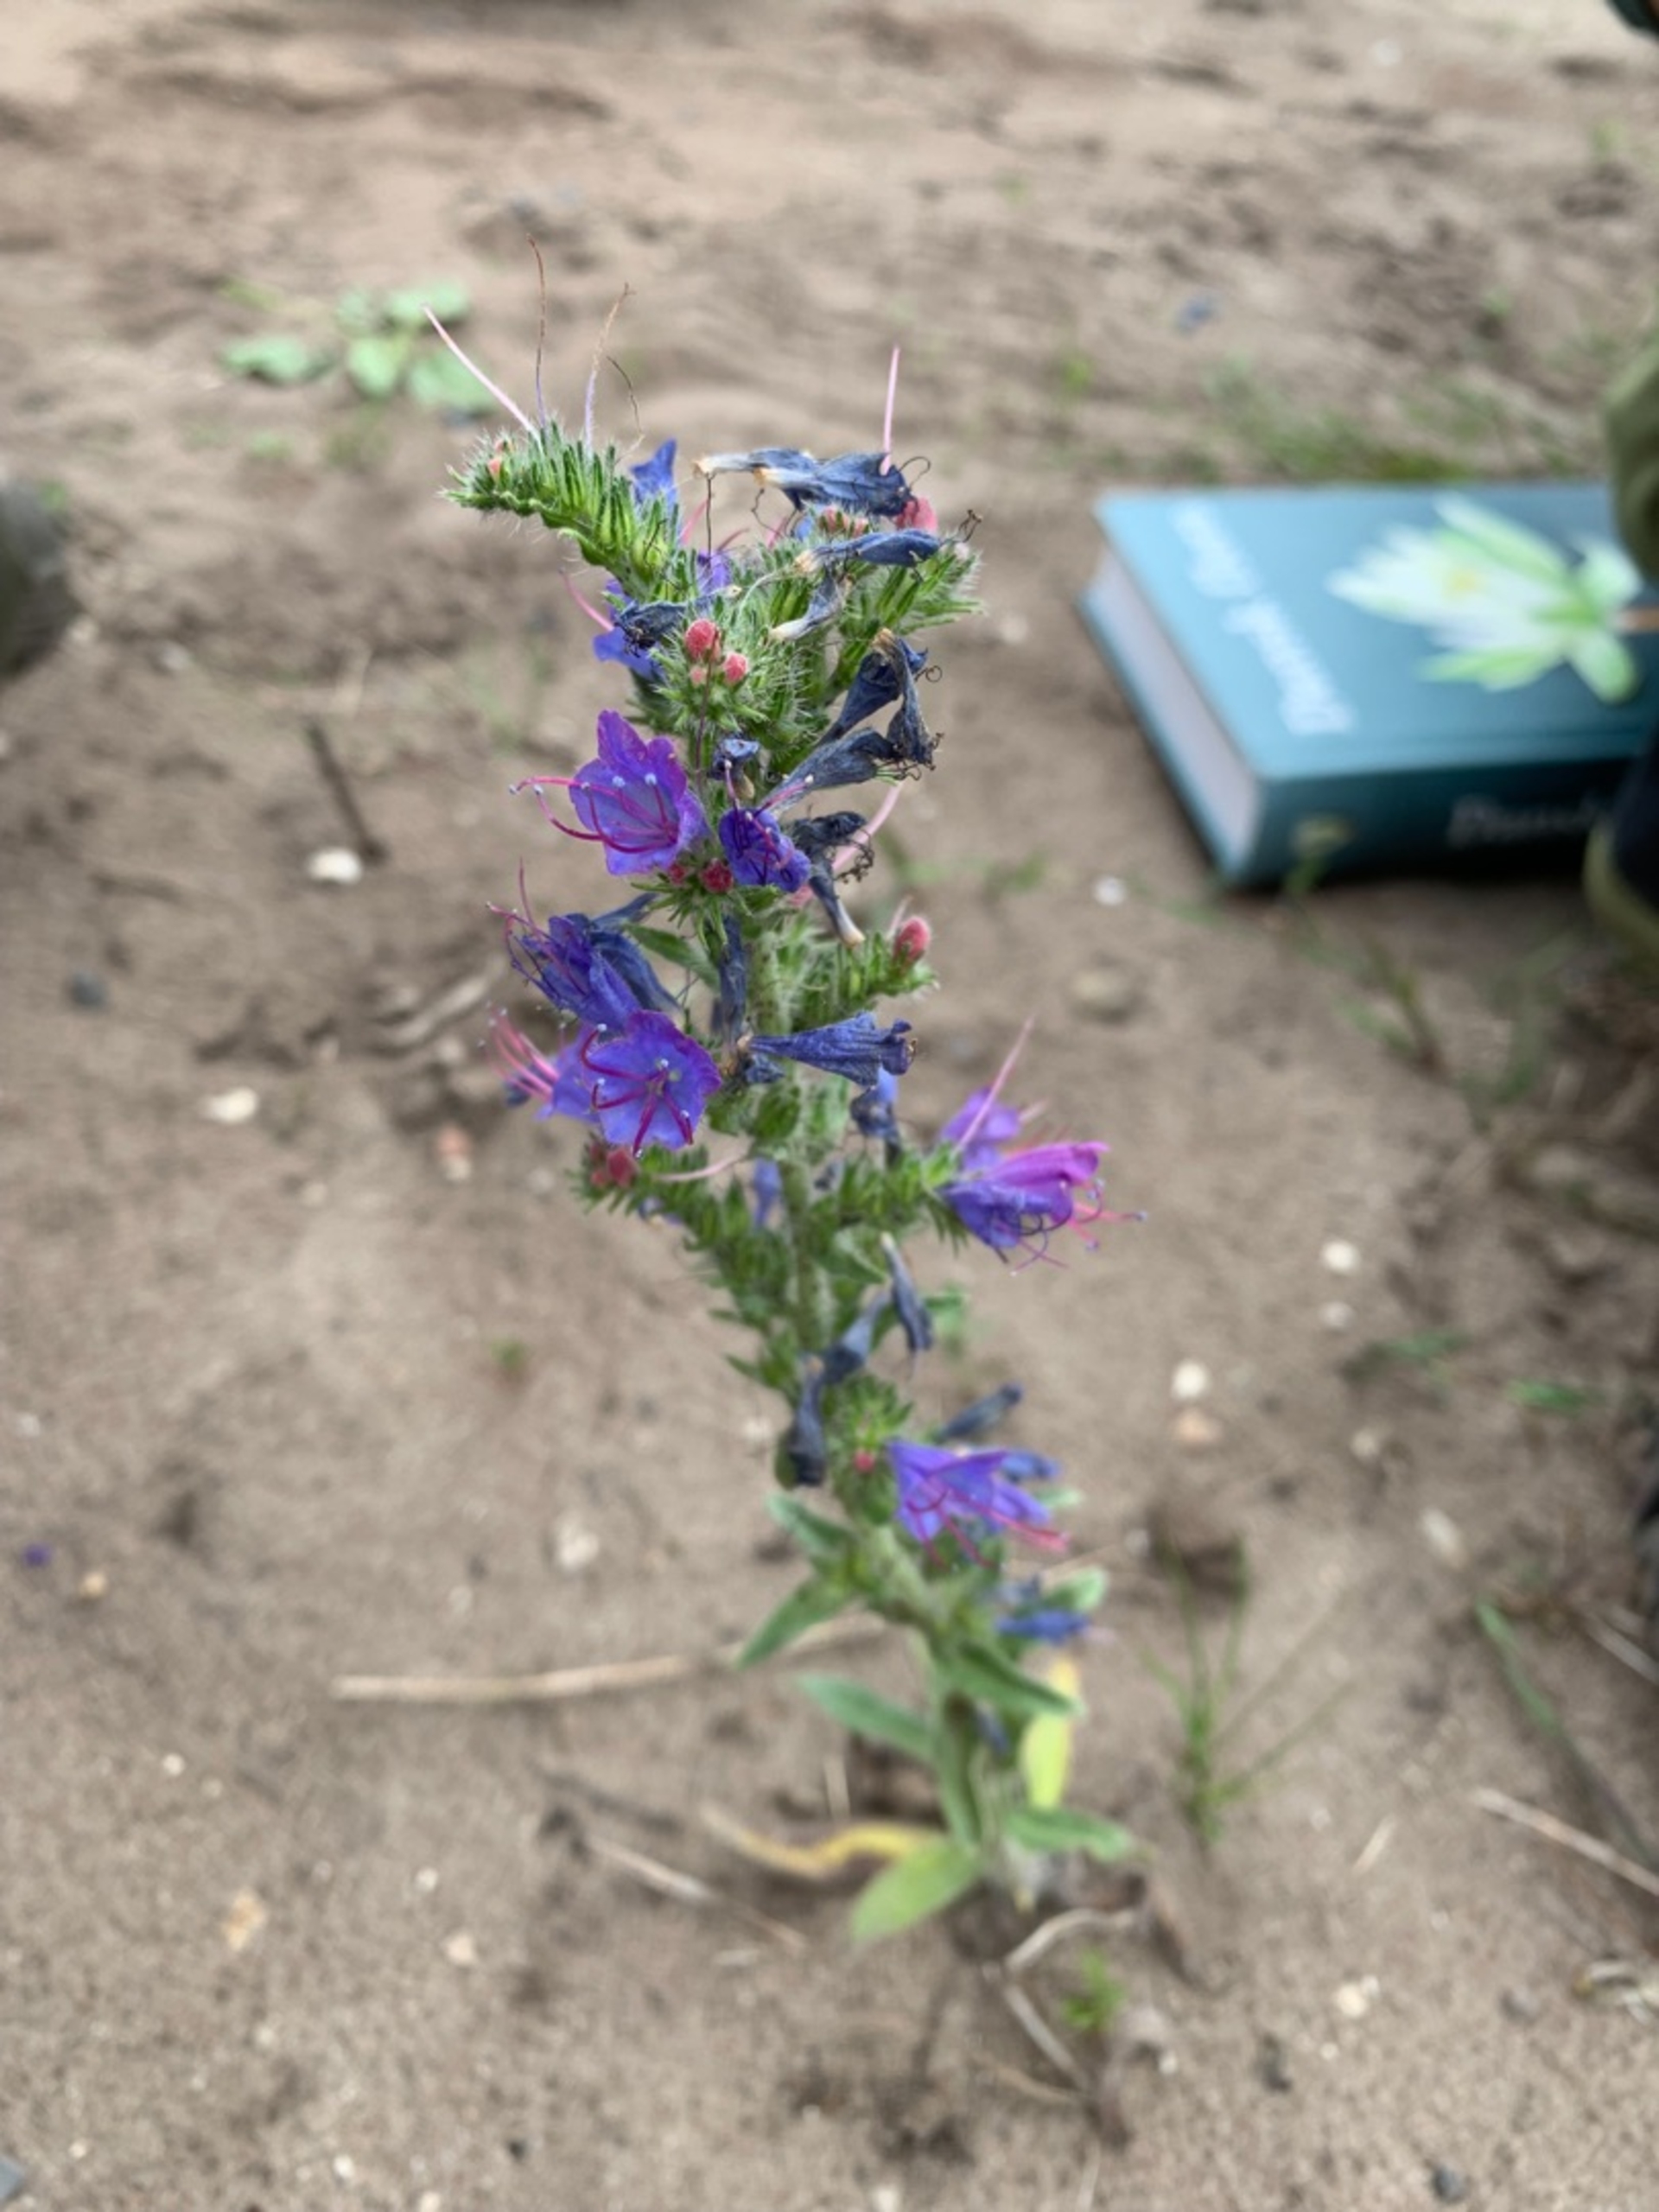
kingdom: Plantae
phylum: Tracheophyta
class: Magnoliopsida
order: Boraginales
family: Boraginaceae
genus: Echium
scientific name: Echium vulgare
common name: Slangehoved
